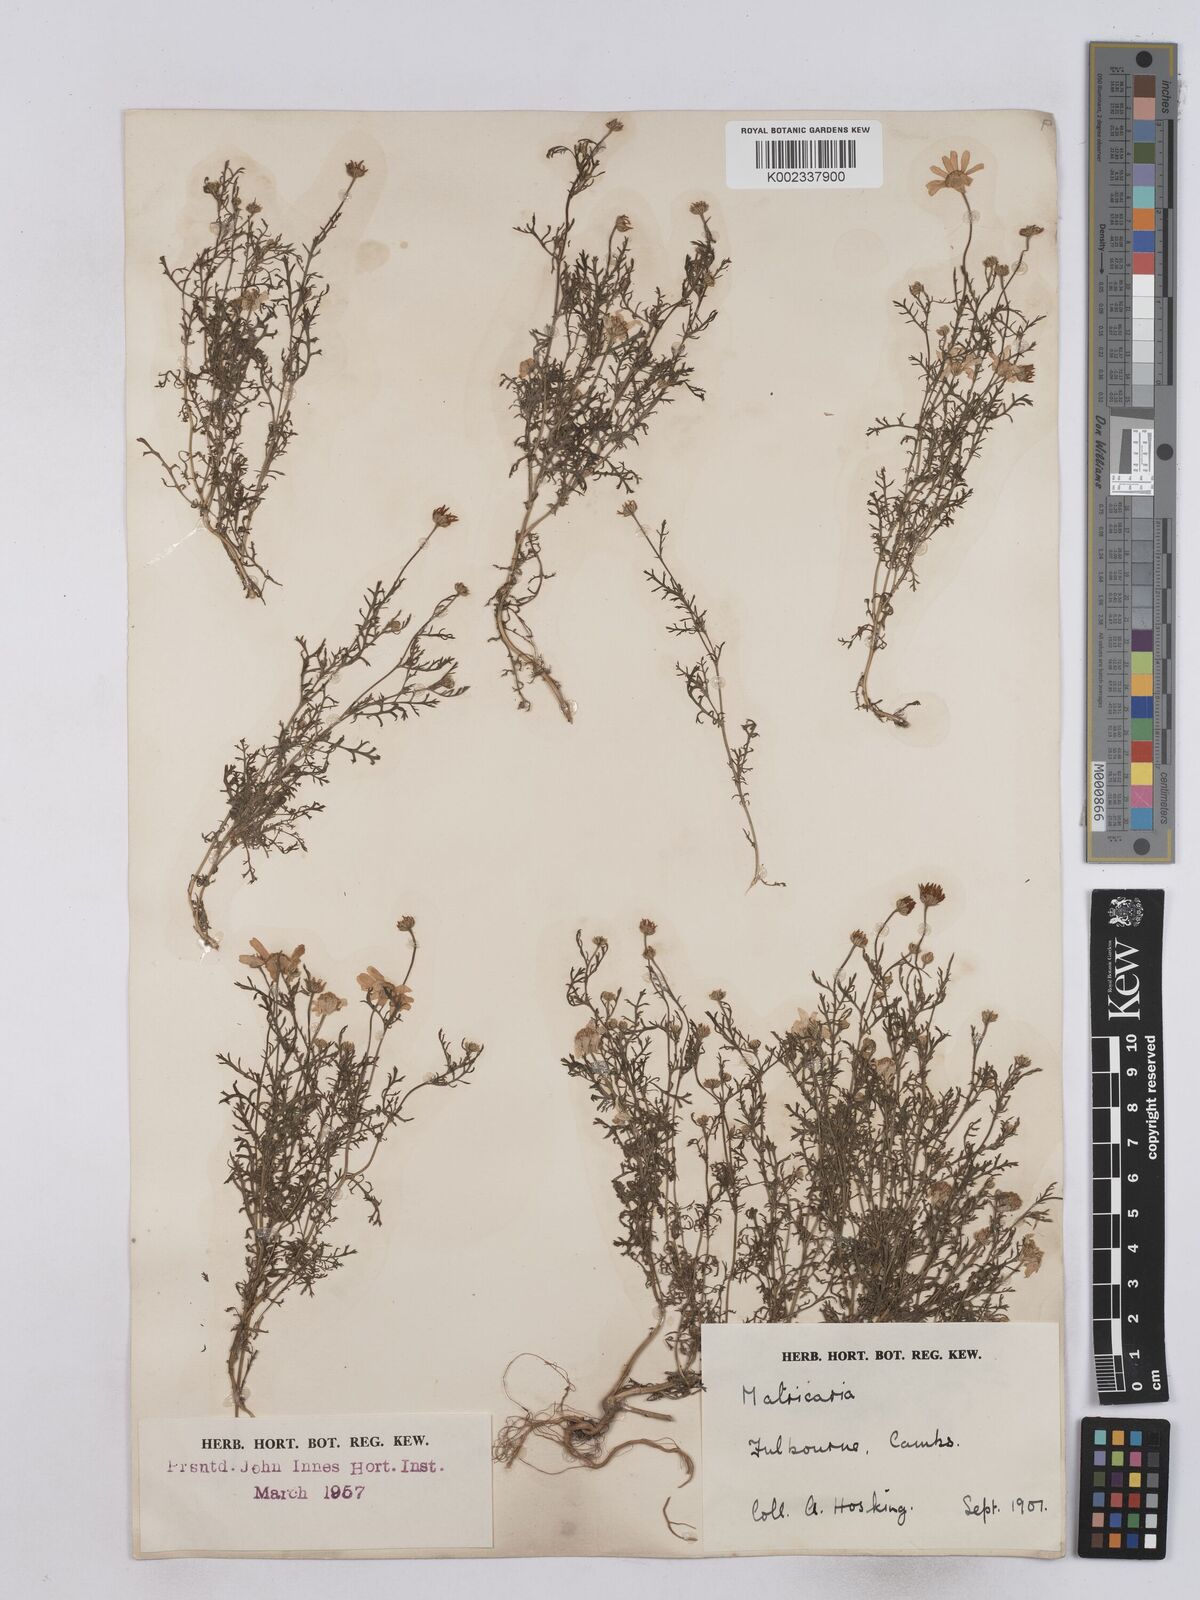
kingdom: Plantae
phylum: Tracheophyta
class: Magnoliopsida
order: Asterales
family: Asteraceae
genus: Matricaria
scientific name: Matricaria discoidea
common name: Disc mayweed
